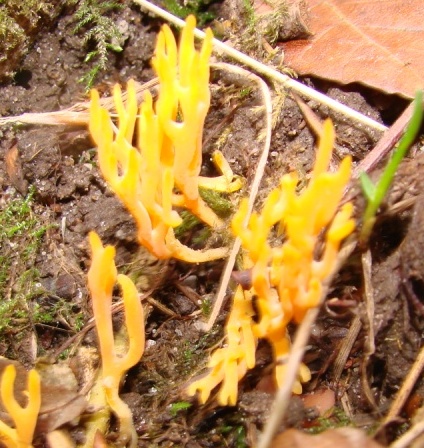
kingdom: Fungi
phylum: Basidiomycota
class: Agaricomycetes
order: Agaricales
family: Clavariaceae
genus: Ramariopsis
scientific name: Ramariopsis crocea
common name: gylden køllesvamp
